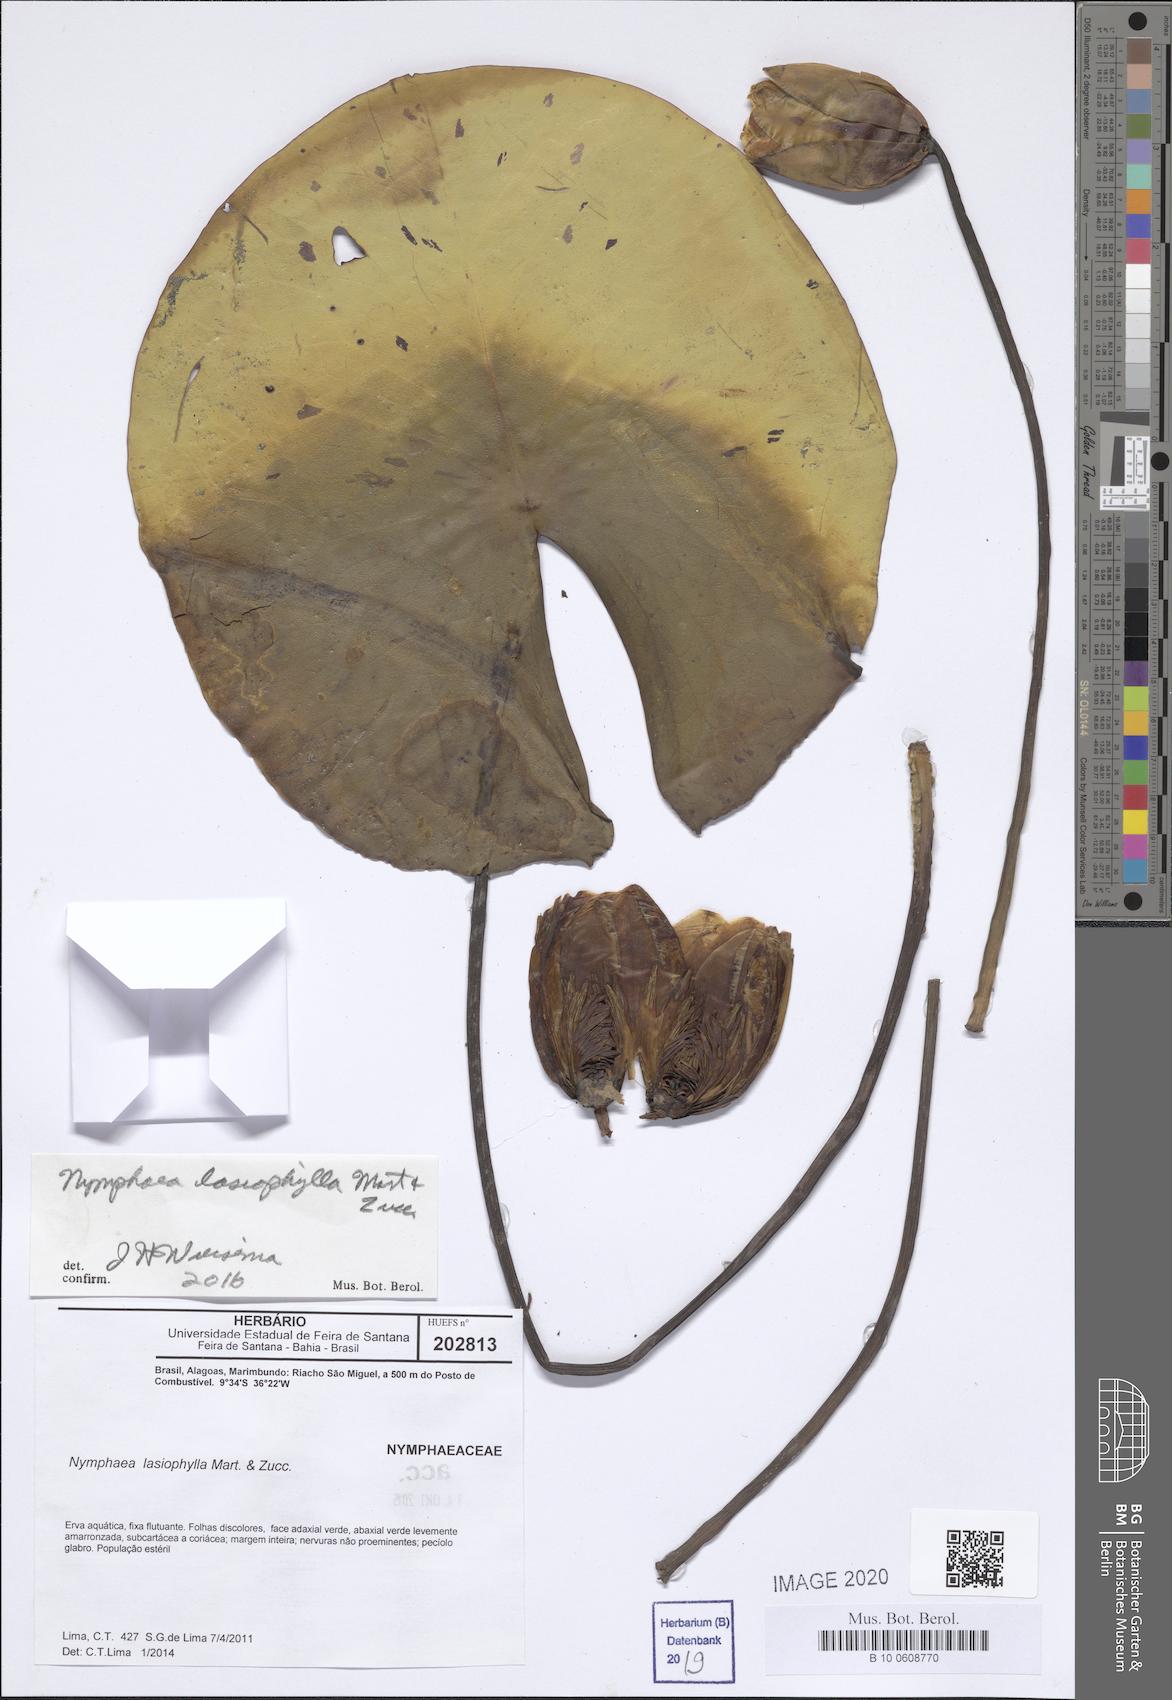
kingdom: Plantae
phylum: Tracheophyta
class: Magnoliopsida
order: Nymphaeales
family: Nymphaeaceae
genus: Nymphaea
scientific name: Nymphaea lasiophylla
